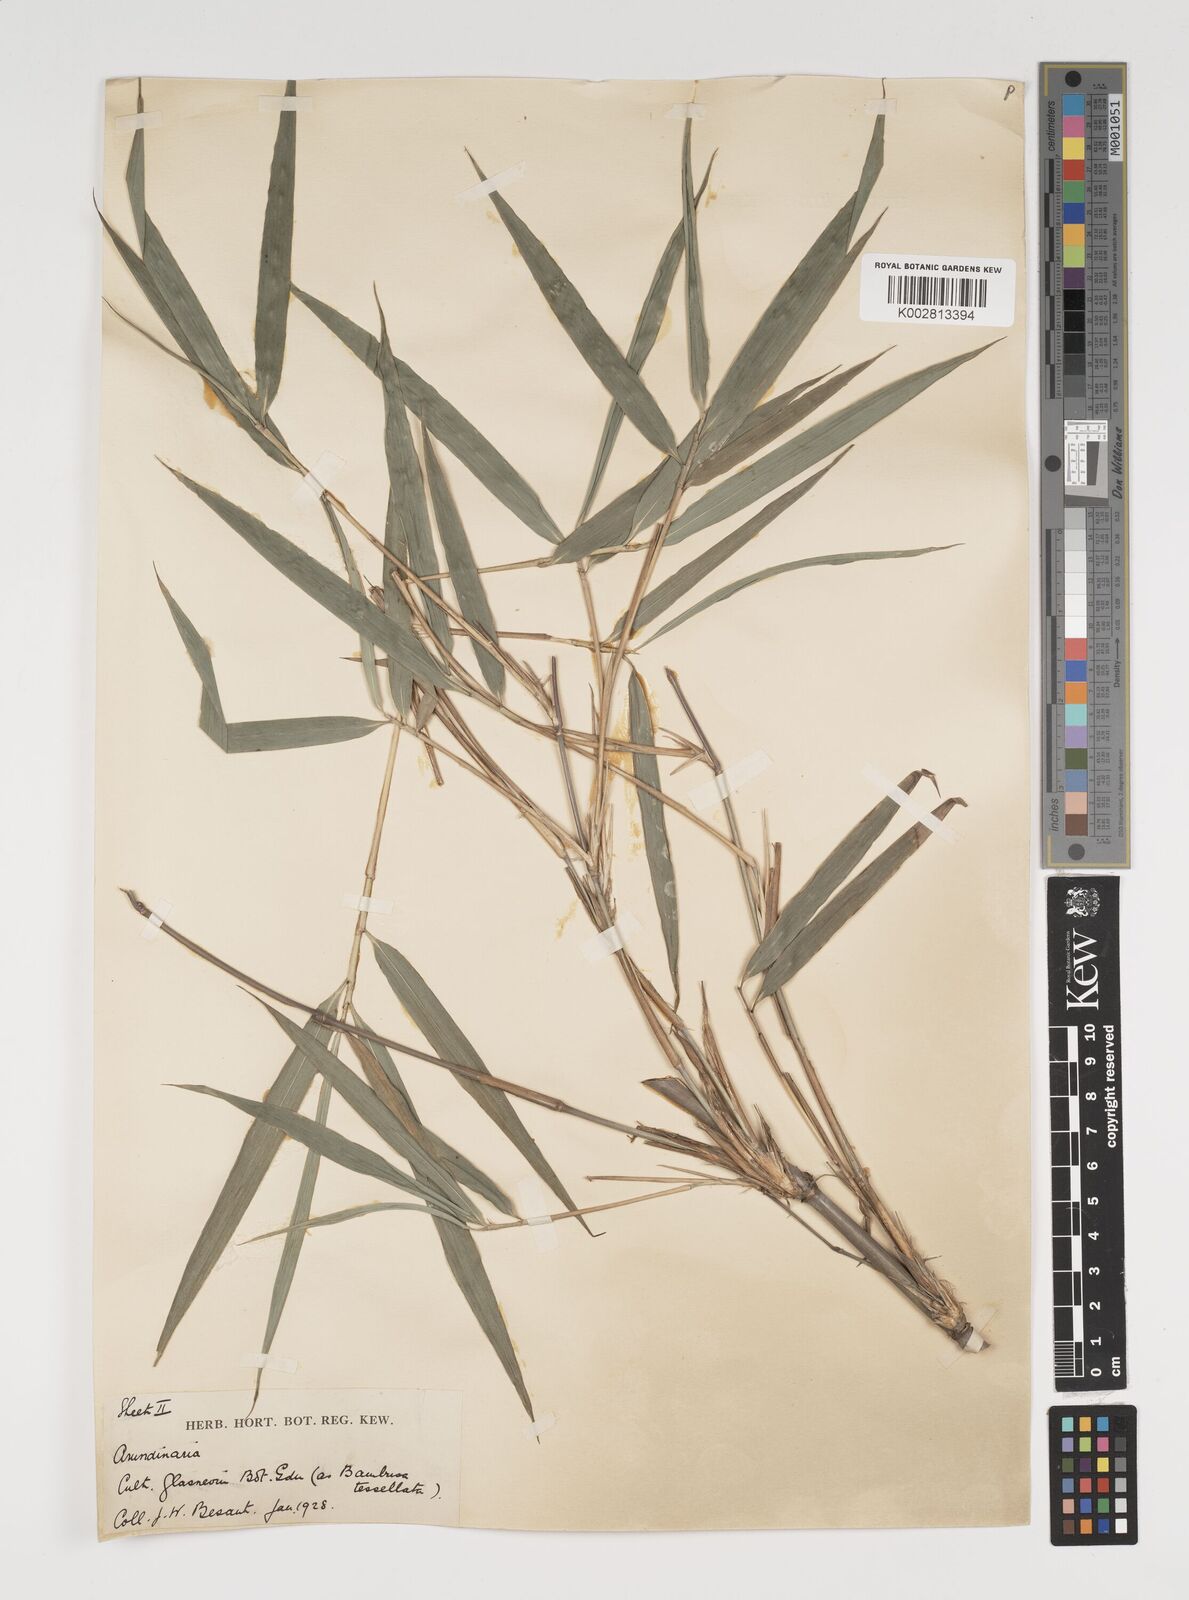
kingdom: Plantae
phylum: Tracheophyta
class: Liliopsida
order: Poales
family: Poaceae
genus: Thamnocalamus
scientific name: Thamnocalamus spathiflorus
